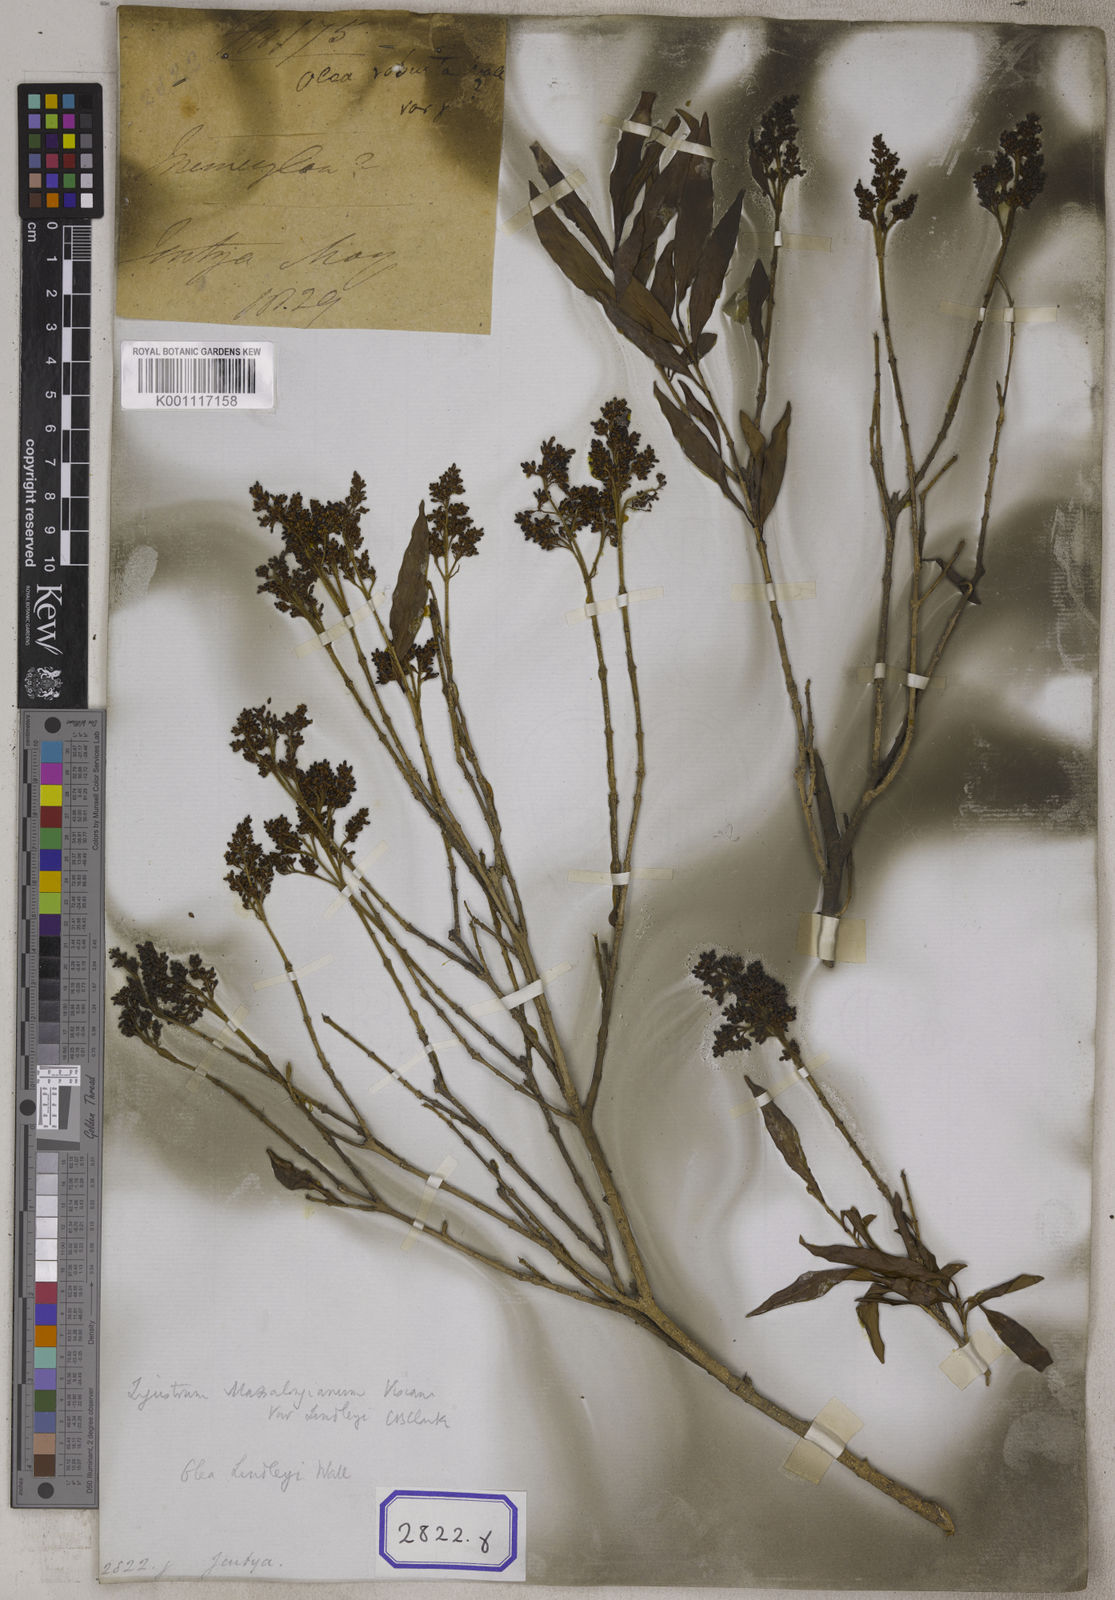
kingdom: Plantae
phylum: Tracheophyta
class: Magnoliopsida
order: Lamiales
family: Oleaceae
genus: Olea
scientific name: Olea
